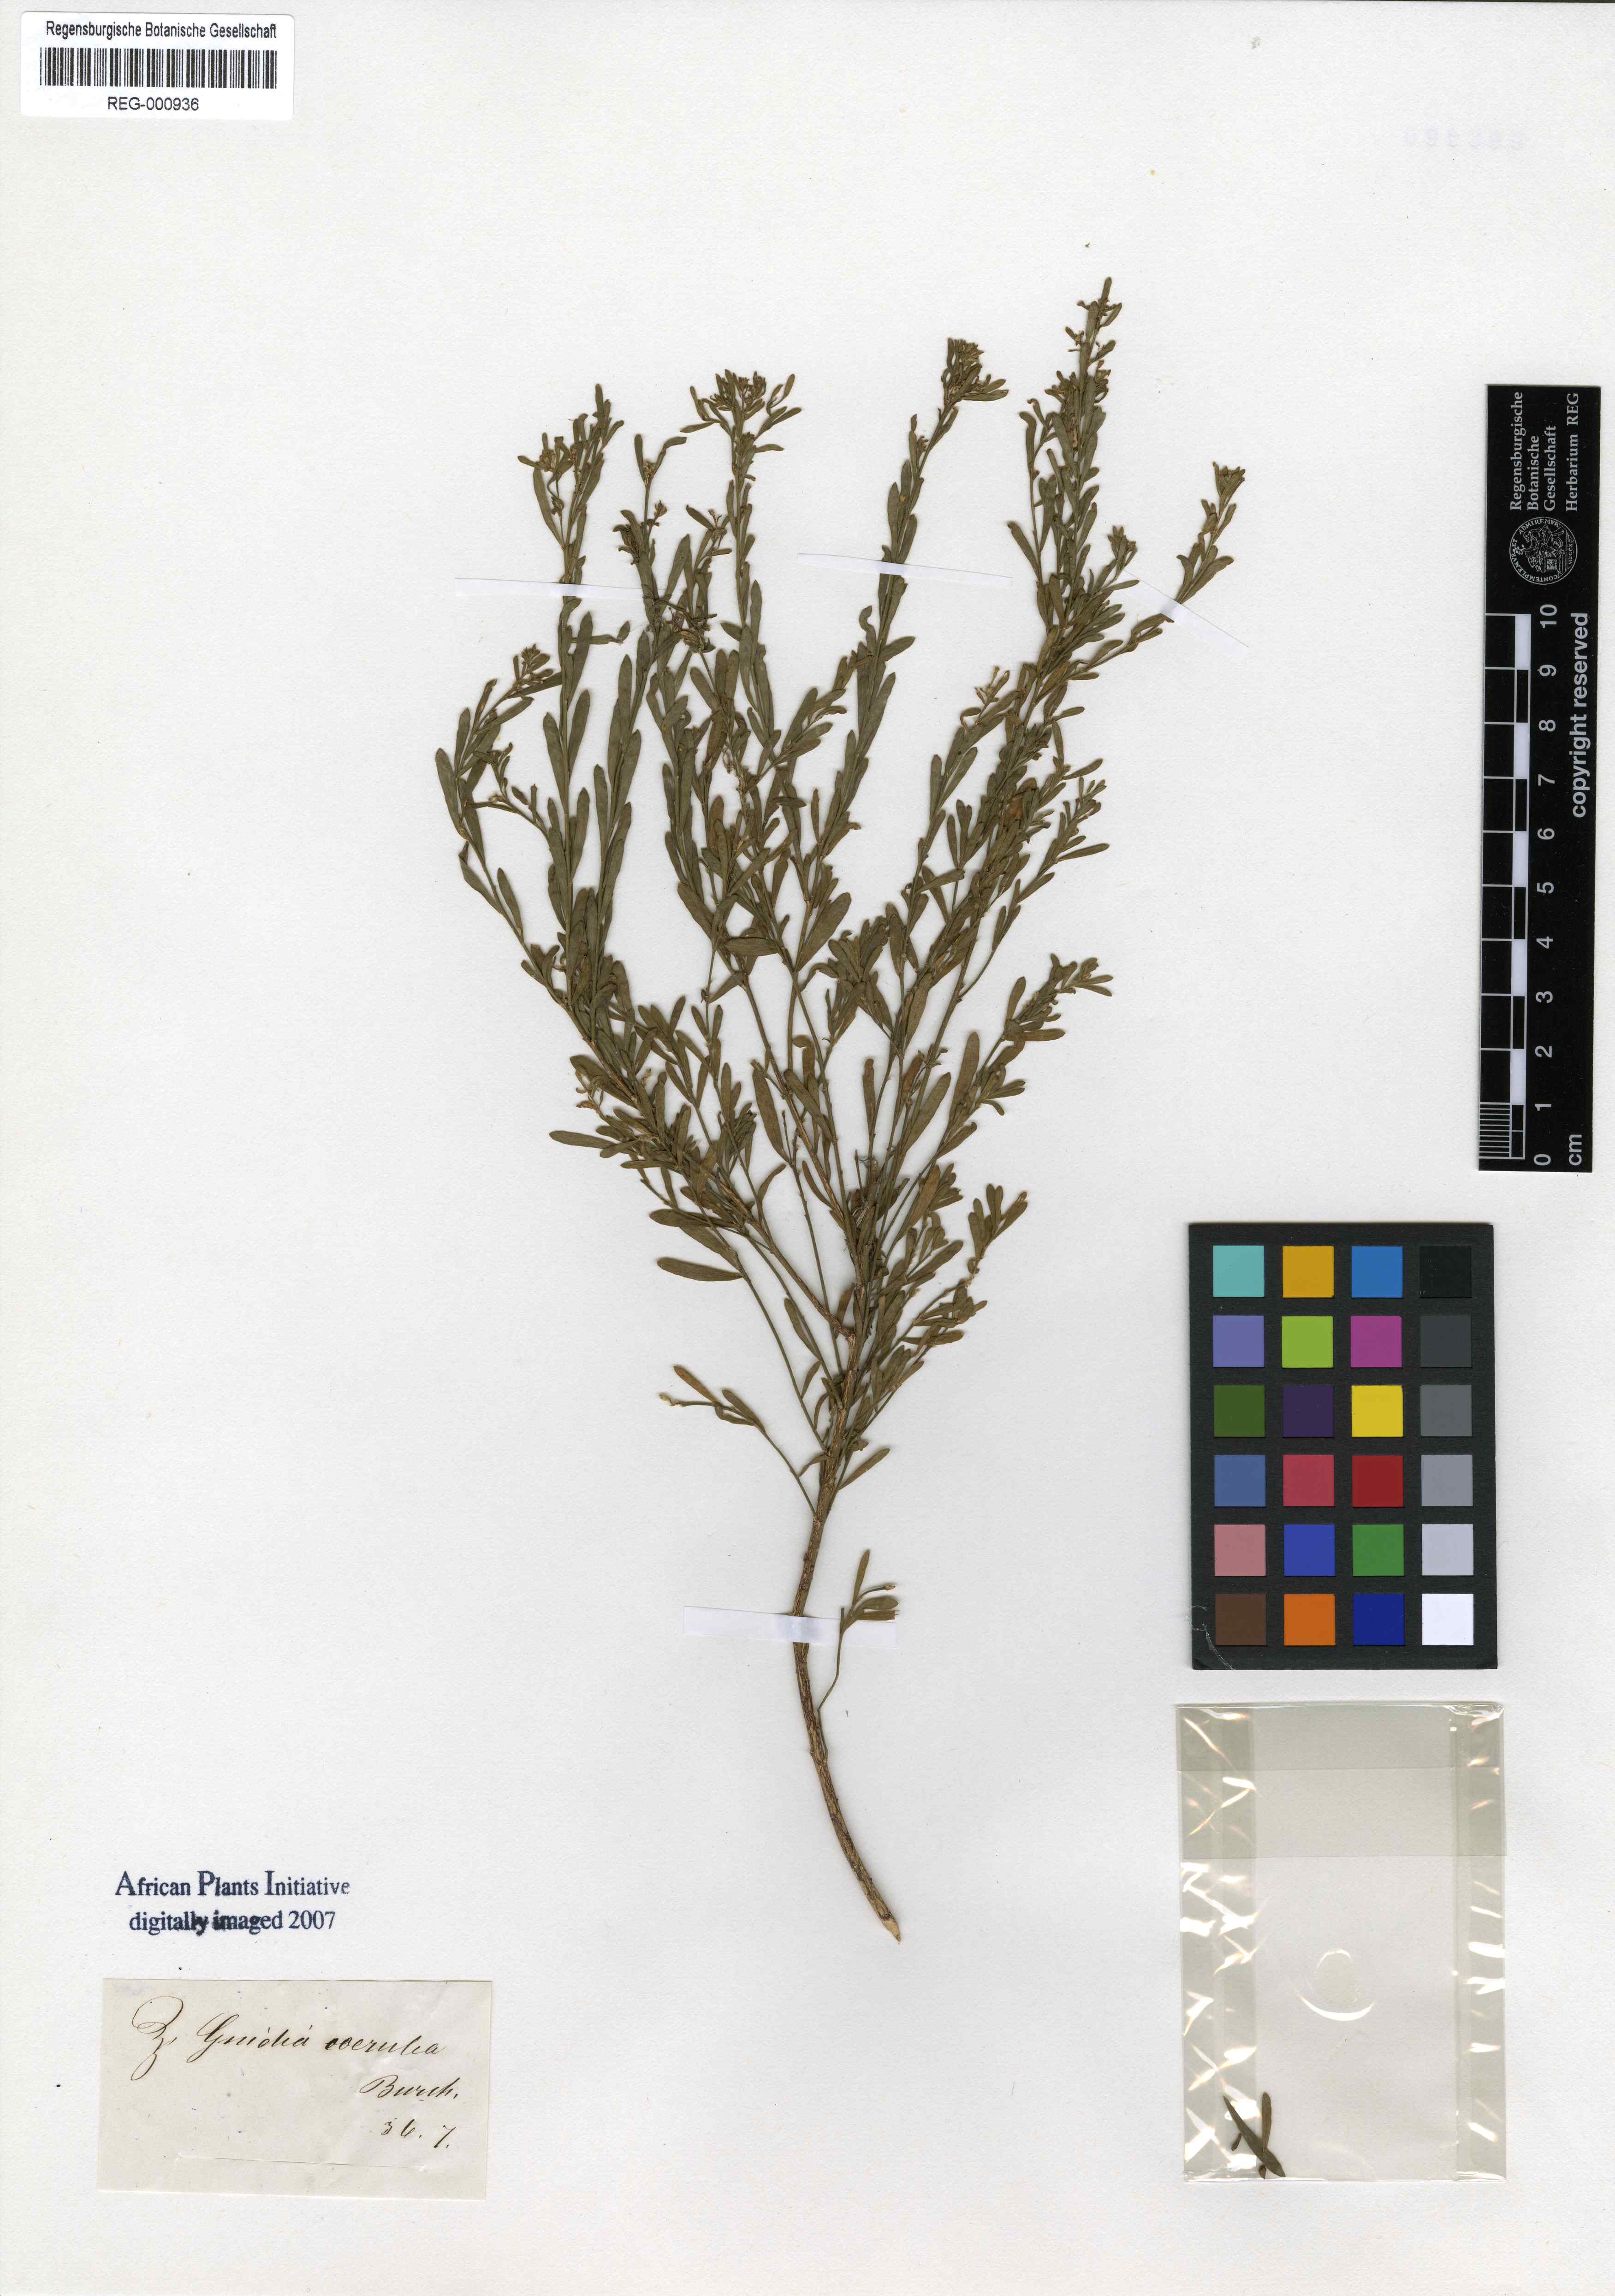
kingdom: Plantae
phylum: Tracheophyta
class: Magnoliopsida
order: Malvales
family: Thymelaeaceae
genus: Gnidia
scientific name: Gnidia setosa
